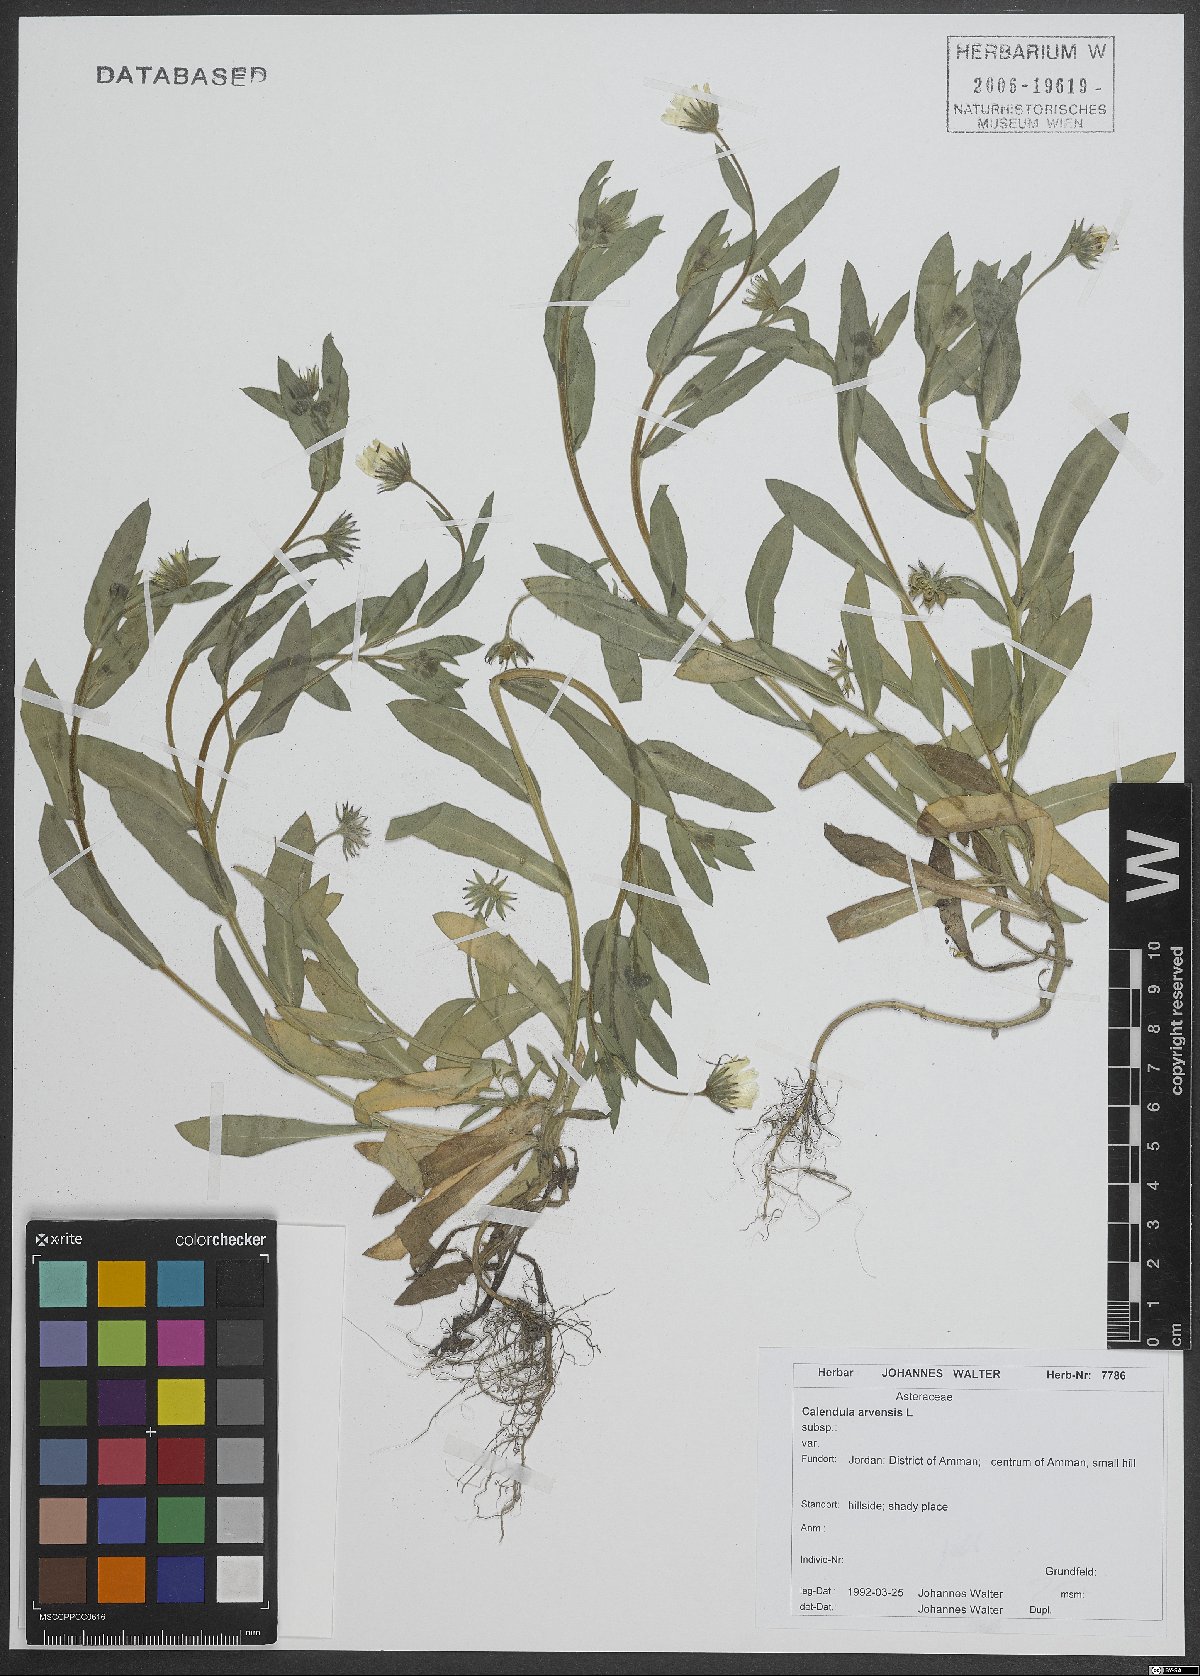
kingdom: Plantae
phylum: Tracheophyta
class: Magnoliopsida
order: Asterales
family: Asteraceae
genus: Calendula
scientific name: Calendula arvensis
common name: Field marigold
